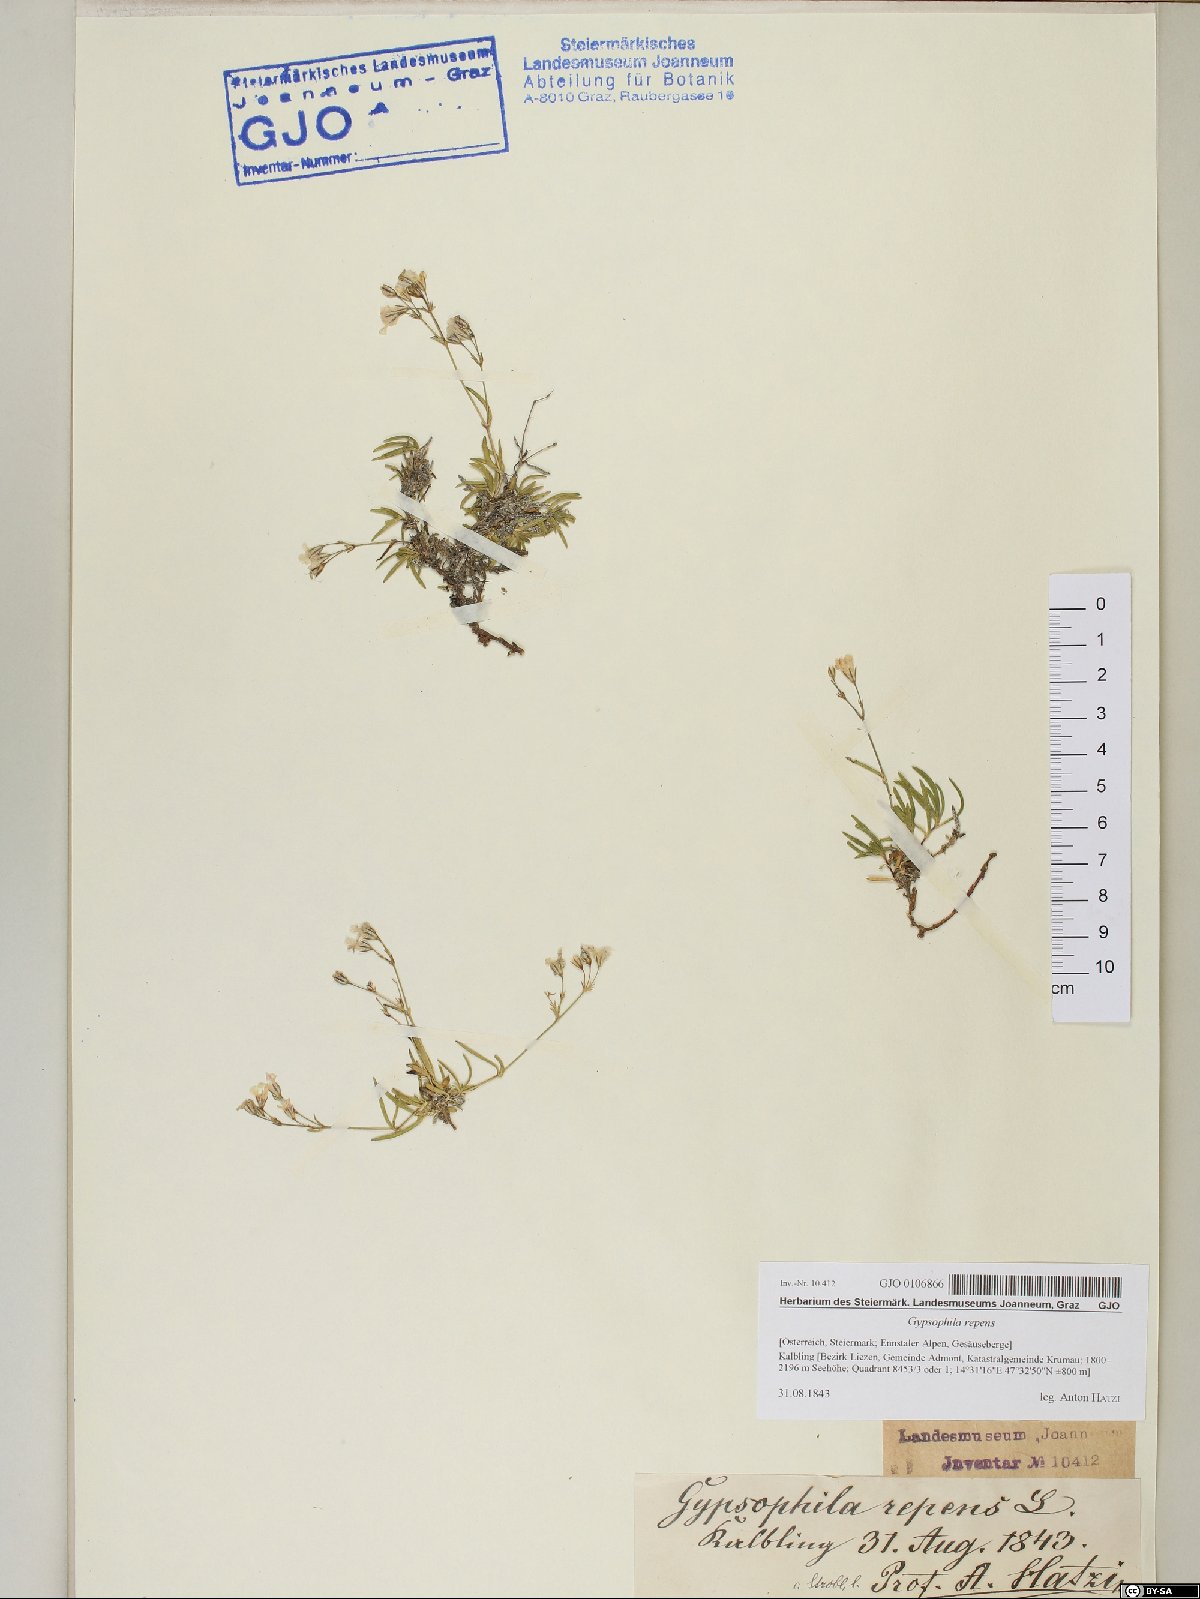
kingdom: Plantae
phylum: Tracheophyta
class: Magnoliopsida
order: Caryophyllales
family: Caryophyllaceae
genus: Gypsophila
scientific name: Gypsophila repens
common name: Creeping baby's-breath
